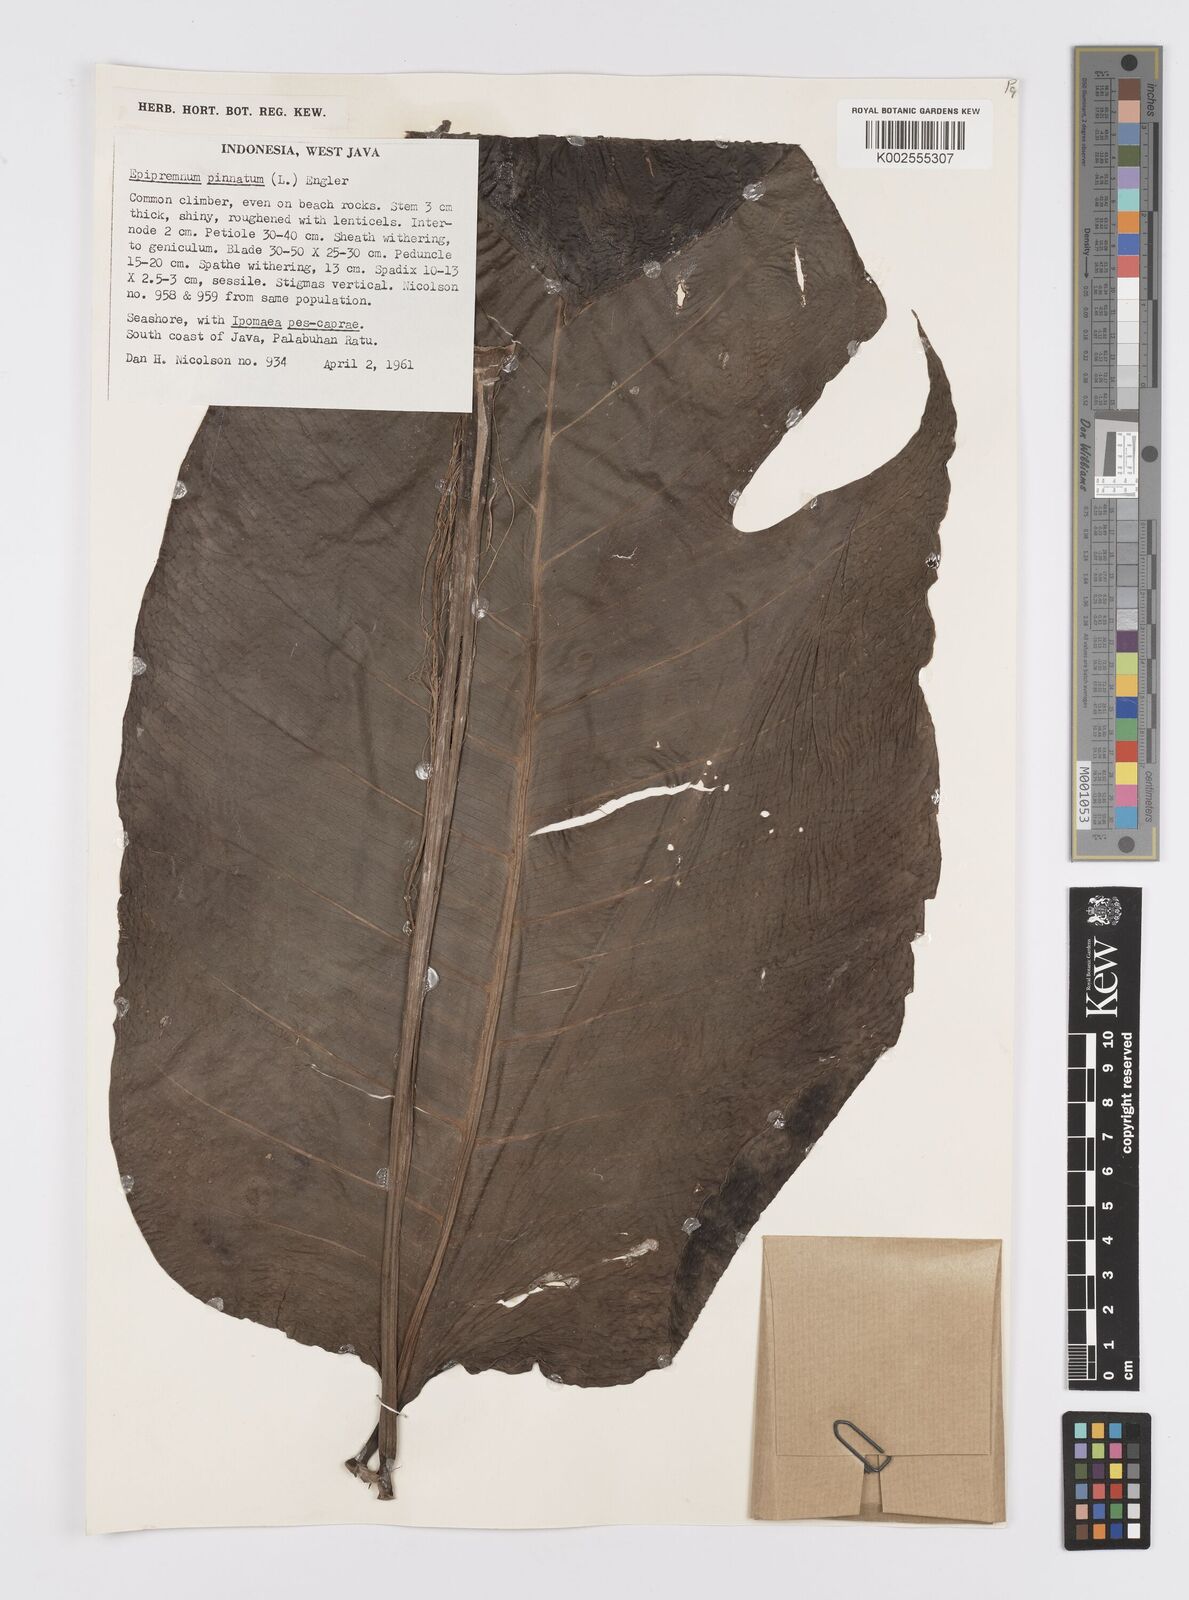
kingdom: Plantae
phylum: Tracheophyta
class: Liliopsida
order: Alismatales
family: Araceae
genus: Epipremnum
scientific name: Epipremnum pinnatum
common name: Centipede tongavine
